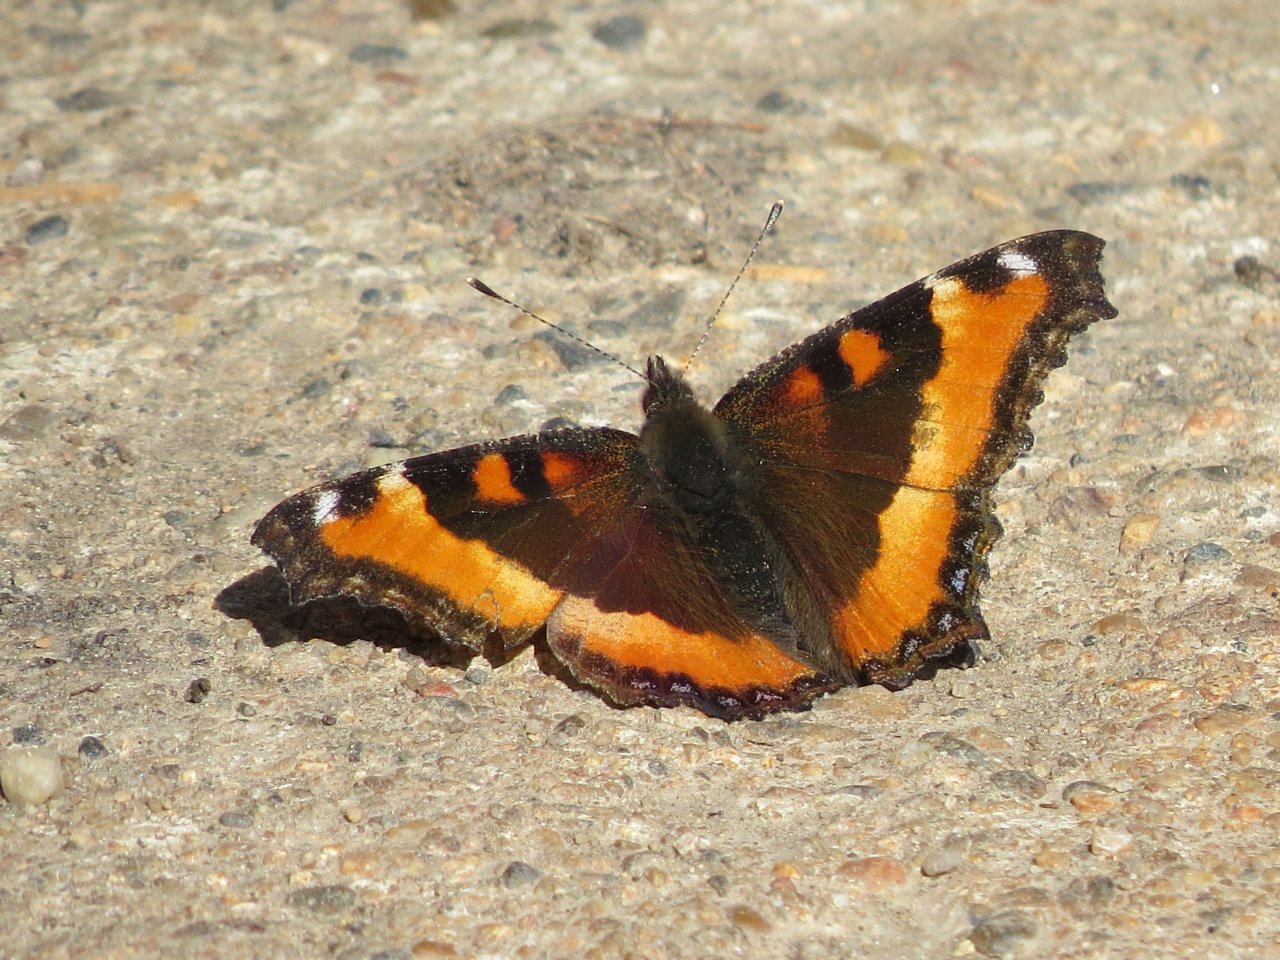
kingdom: Animalia
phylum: Arthropoda
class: Insecta
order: Lepidoptera
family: Nymphalidae
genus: Aglais
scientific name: Aglais milberti
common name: Milbert's Tortoiseshell
